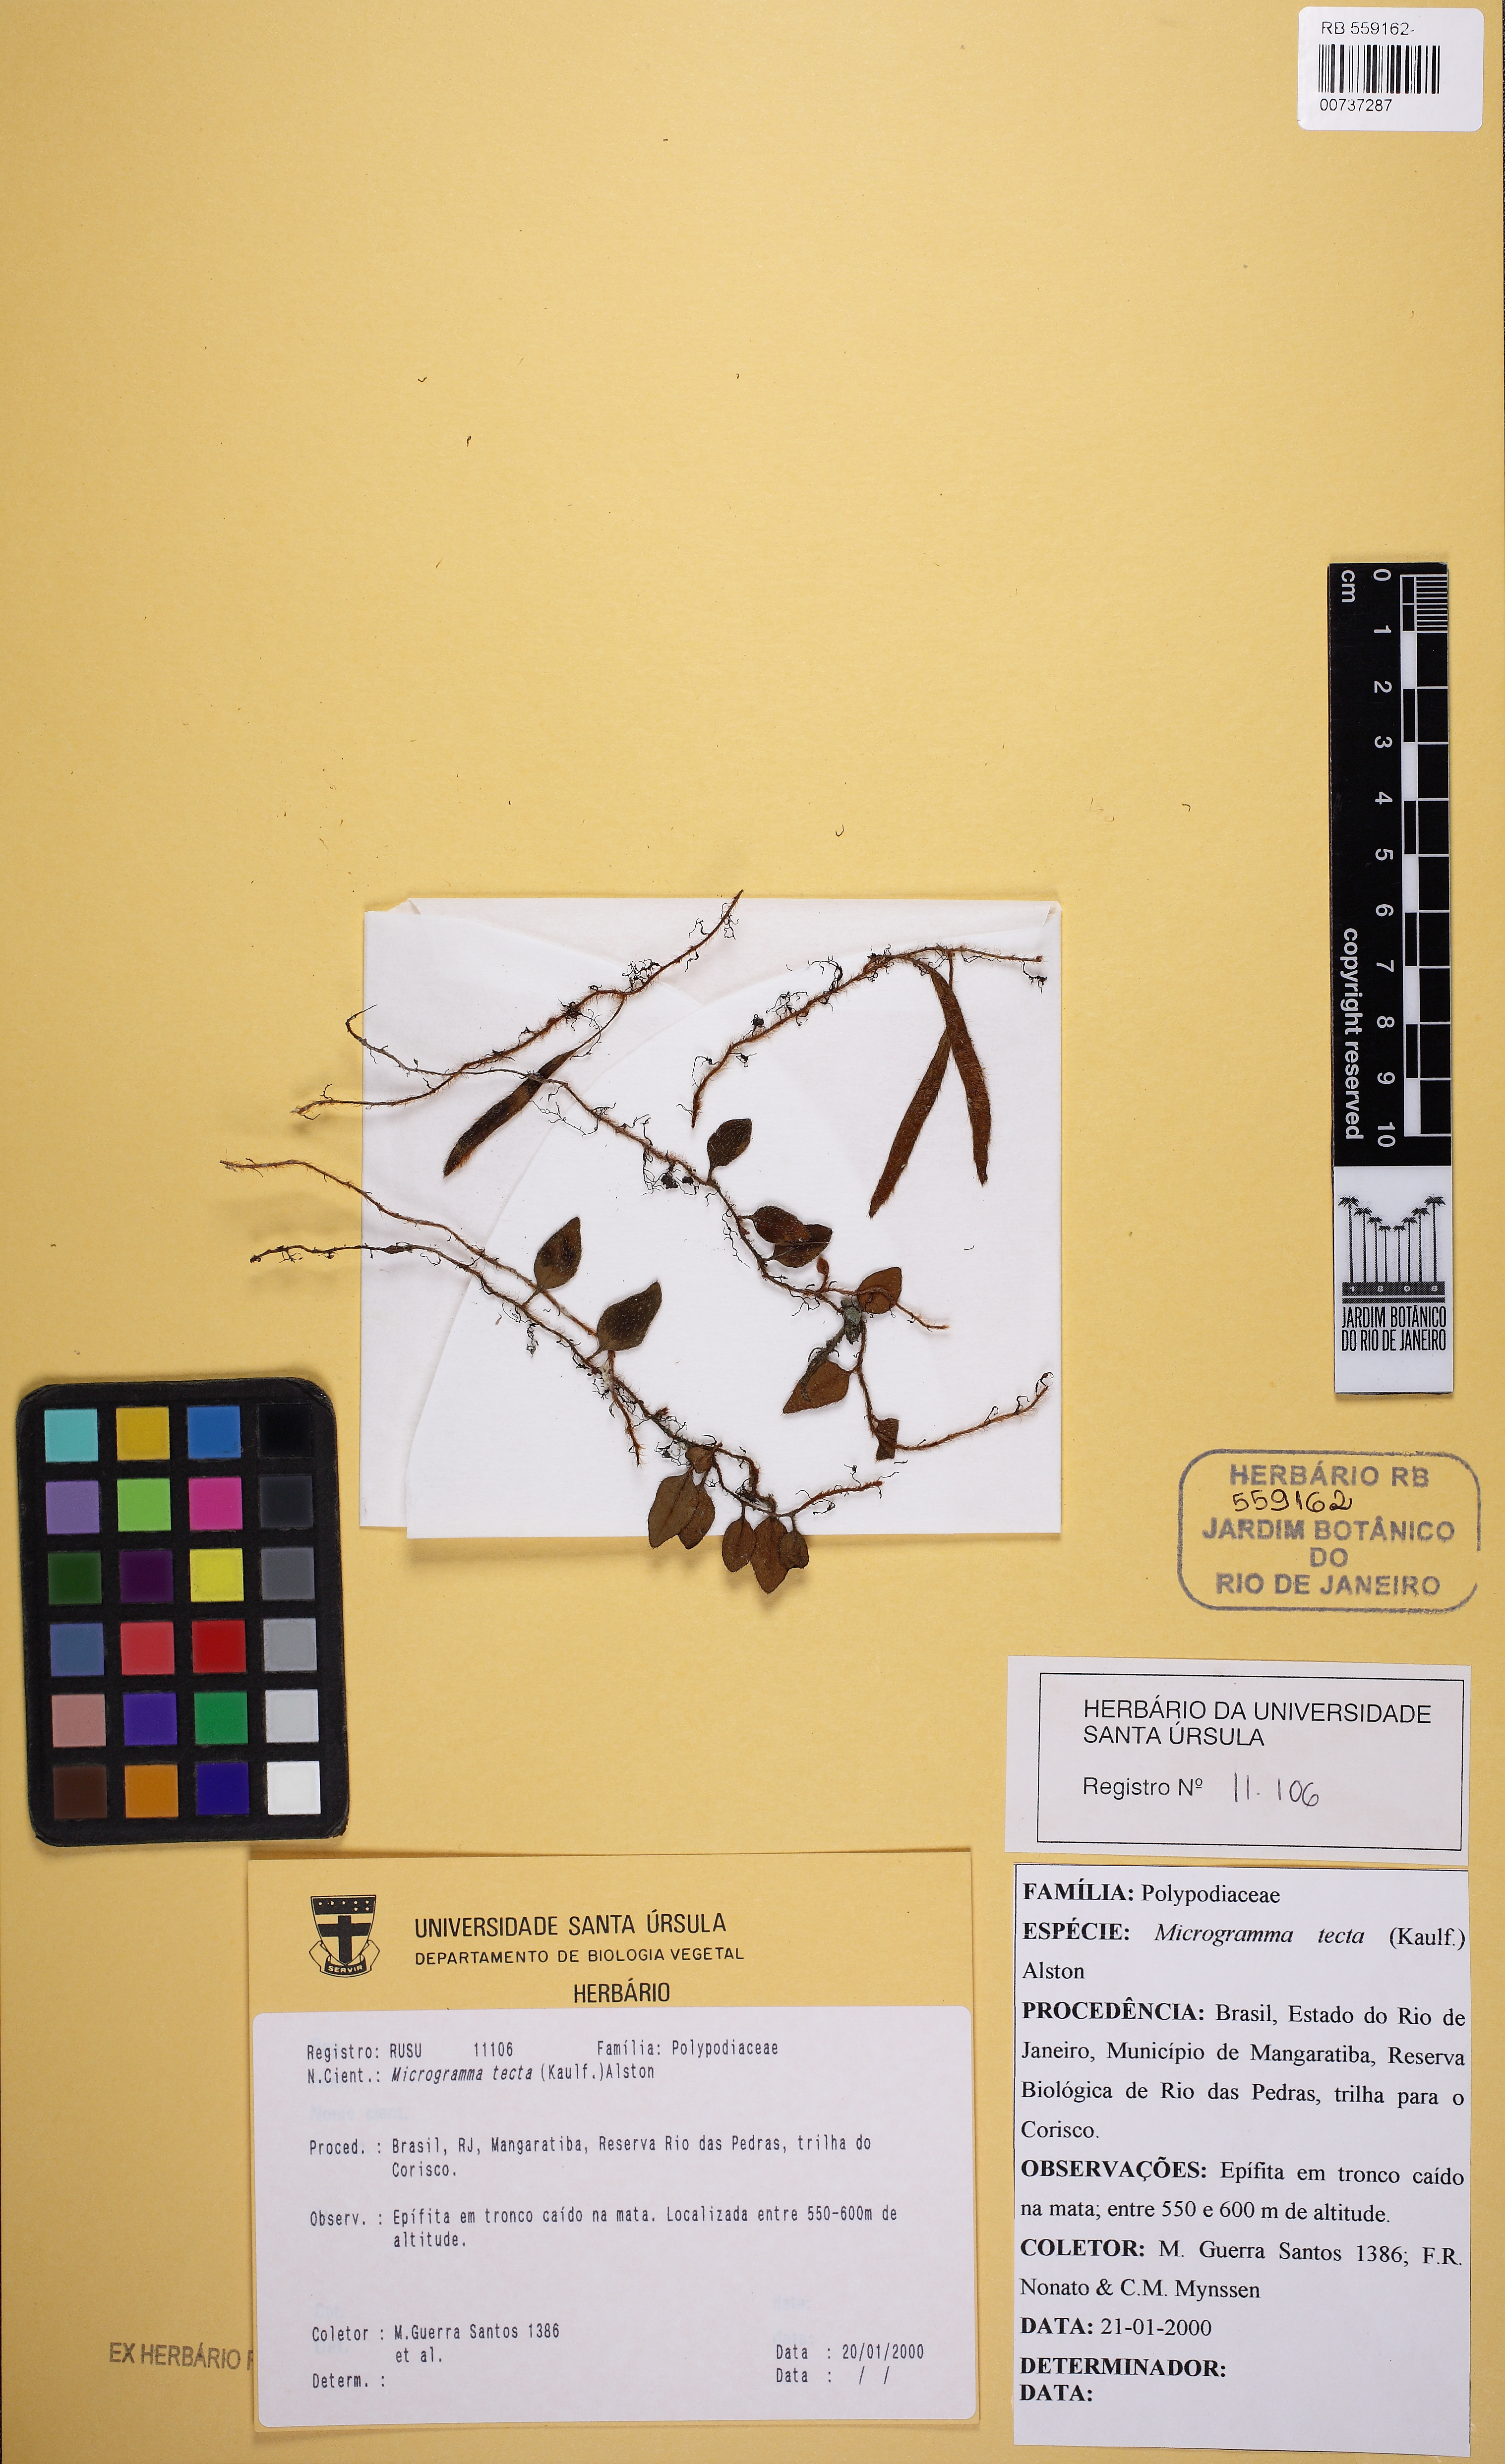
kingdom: Plantae
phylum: Tracheophyta
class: Polypodiopsida
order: Polypodiales
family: Polypodiaceae
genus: Microgramma
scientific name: Microgramma tecta
